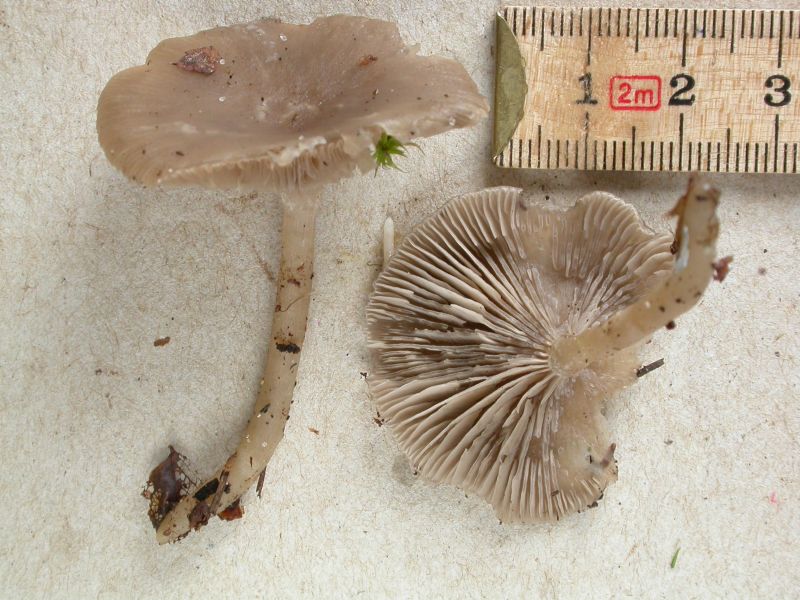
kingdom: Fungi
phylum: Basidiomycota
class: Agaricomycetes
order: Agaricales
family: Tricholomataceae
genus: Clitocybe
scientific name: Clitocybe vibecina
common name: randstribet tragthat
